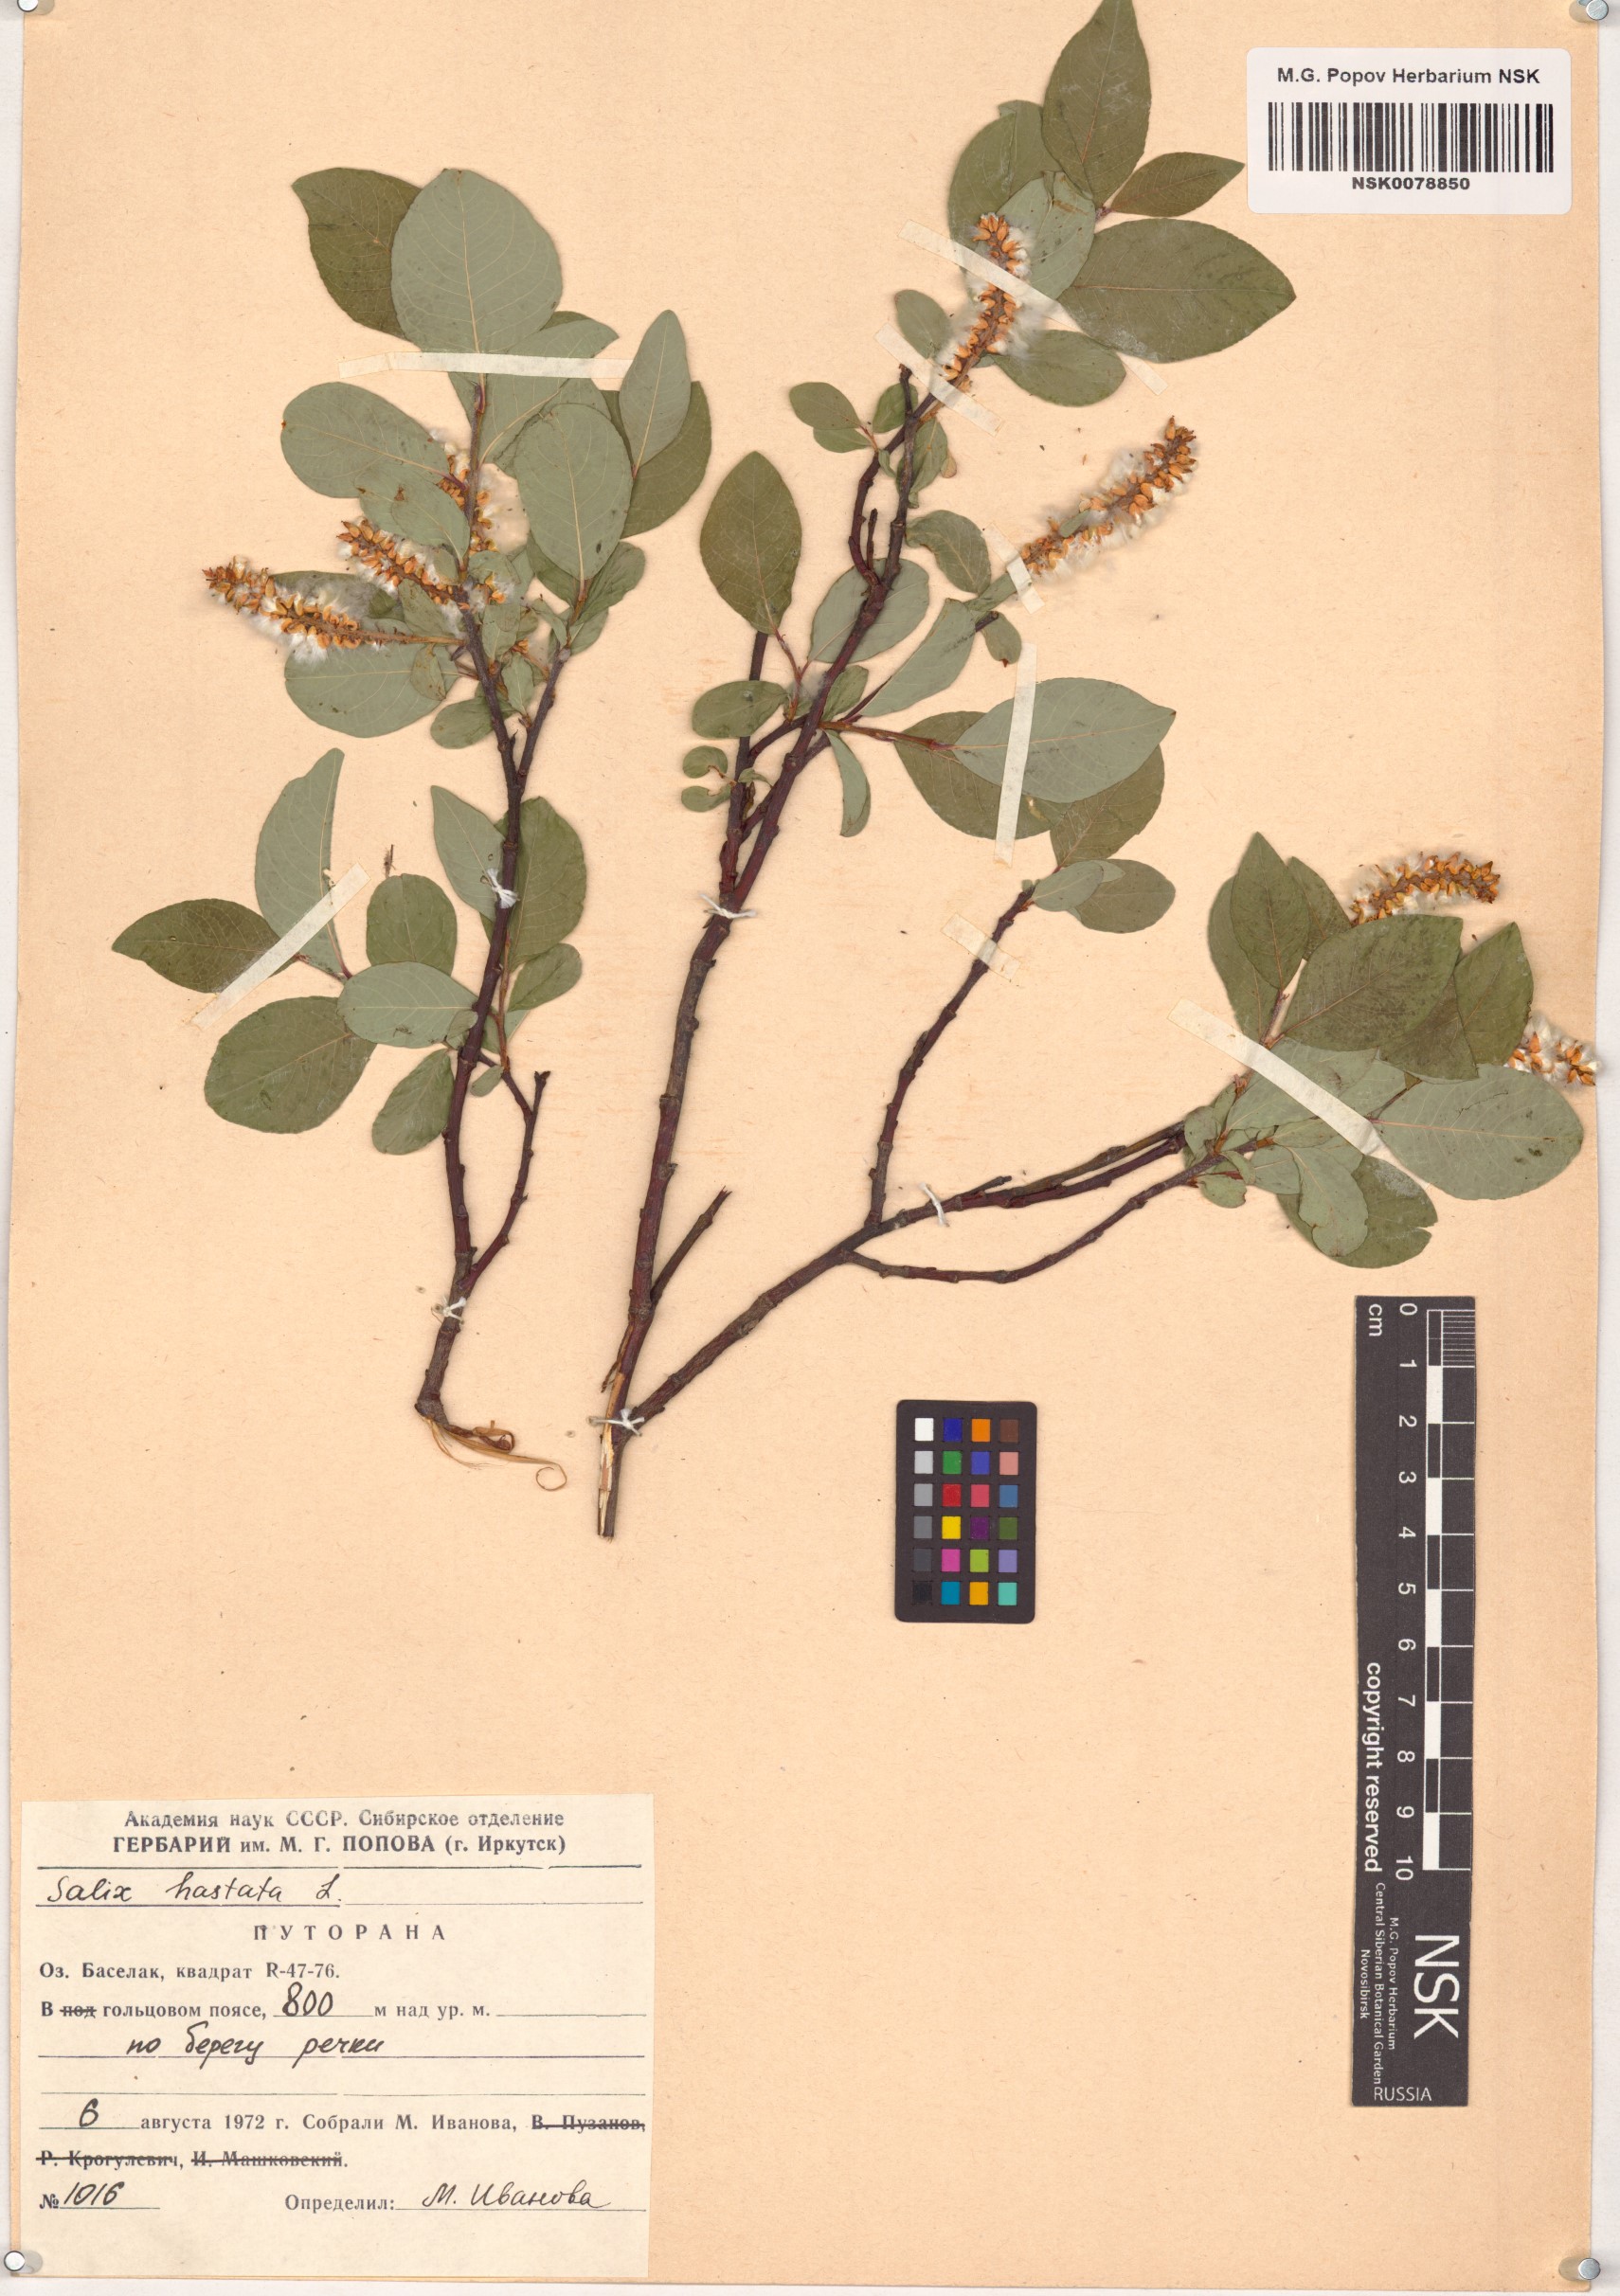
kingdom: Plantae
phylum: Tracheophyta
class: Magnoliopsida
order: Malpighiales
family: Salicaceae
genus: Salix
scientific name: Salix hastata
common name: Halberd willow
